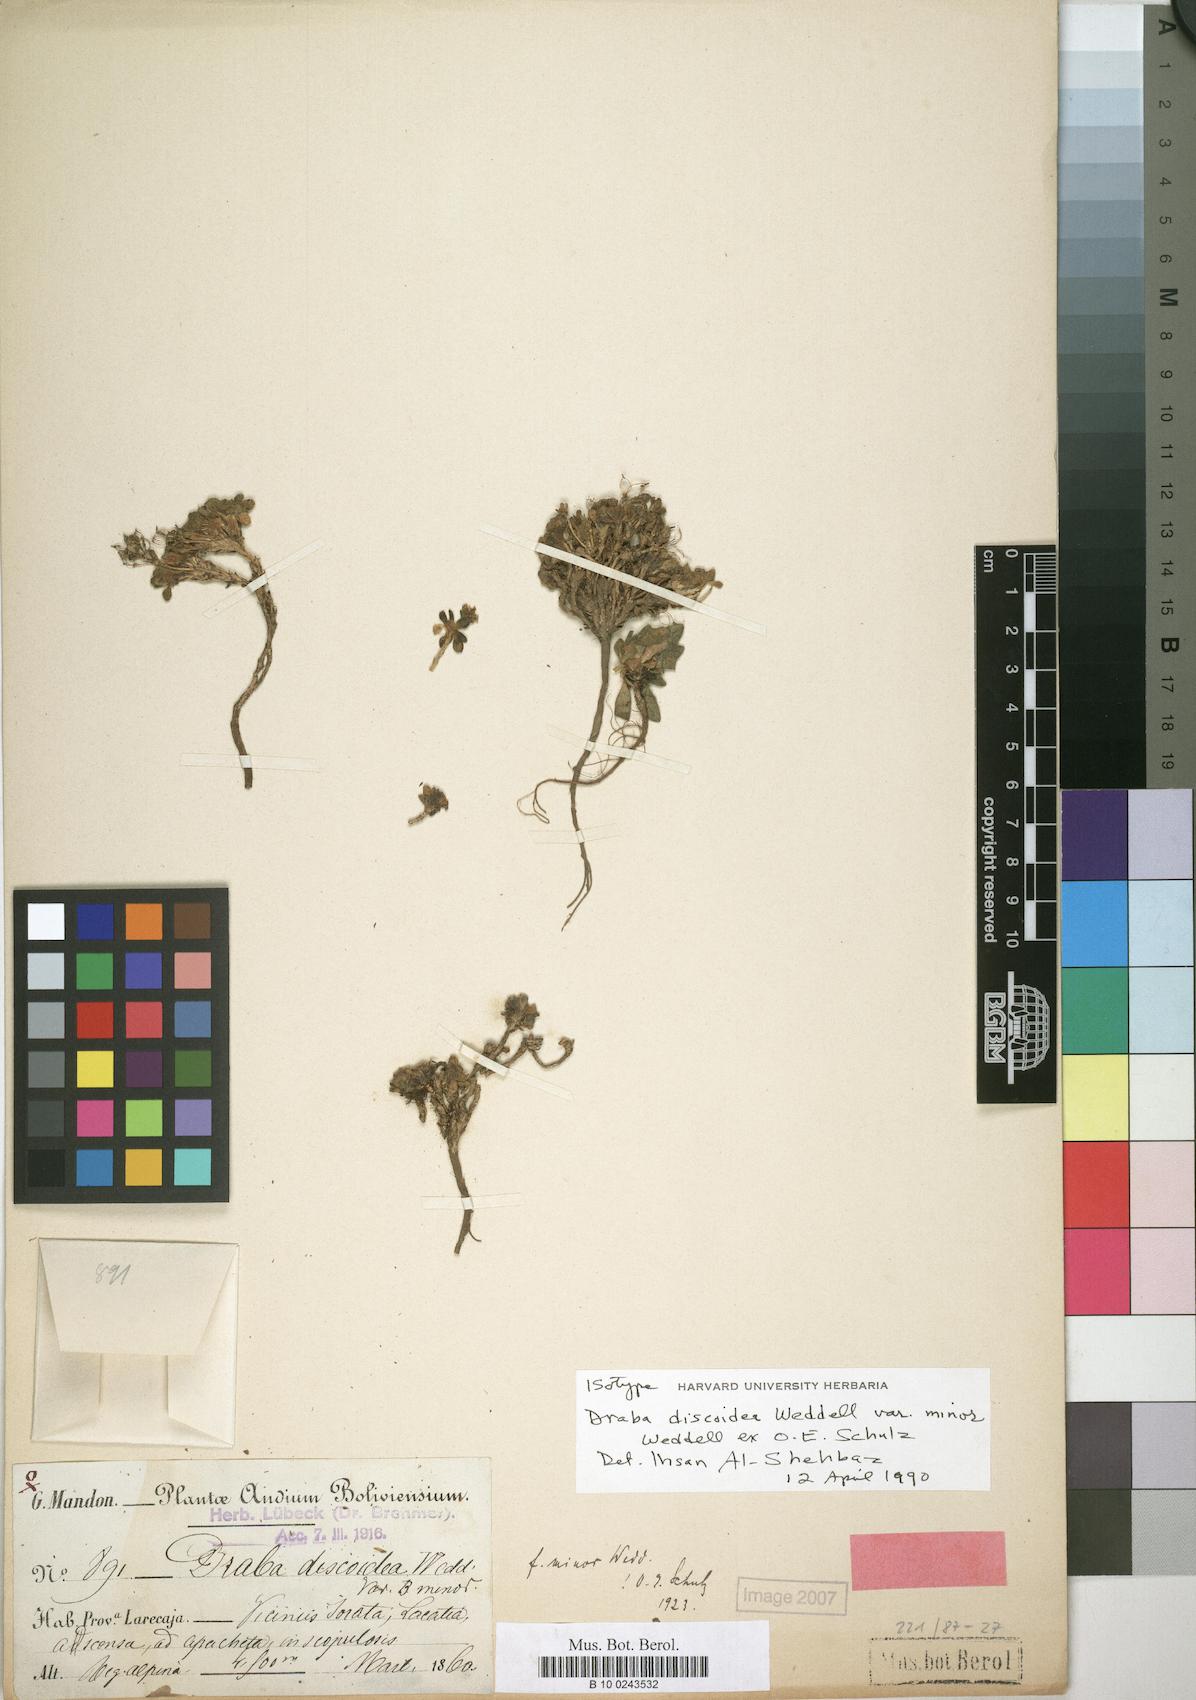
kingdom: Plantae
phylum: Tracheophyta
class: Magnoliopsida
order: Brassicales
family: Brassicaceae
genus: Draba
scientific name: Draba discoidea
